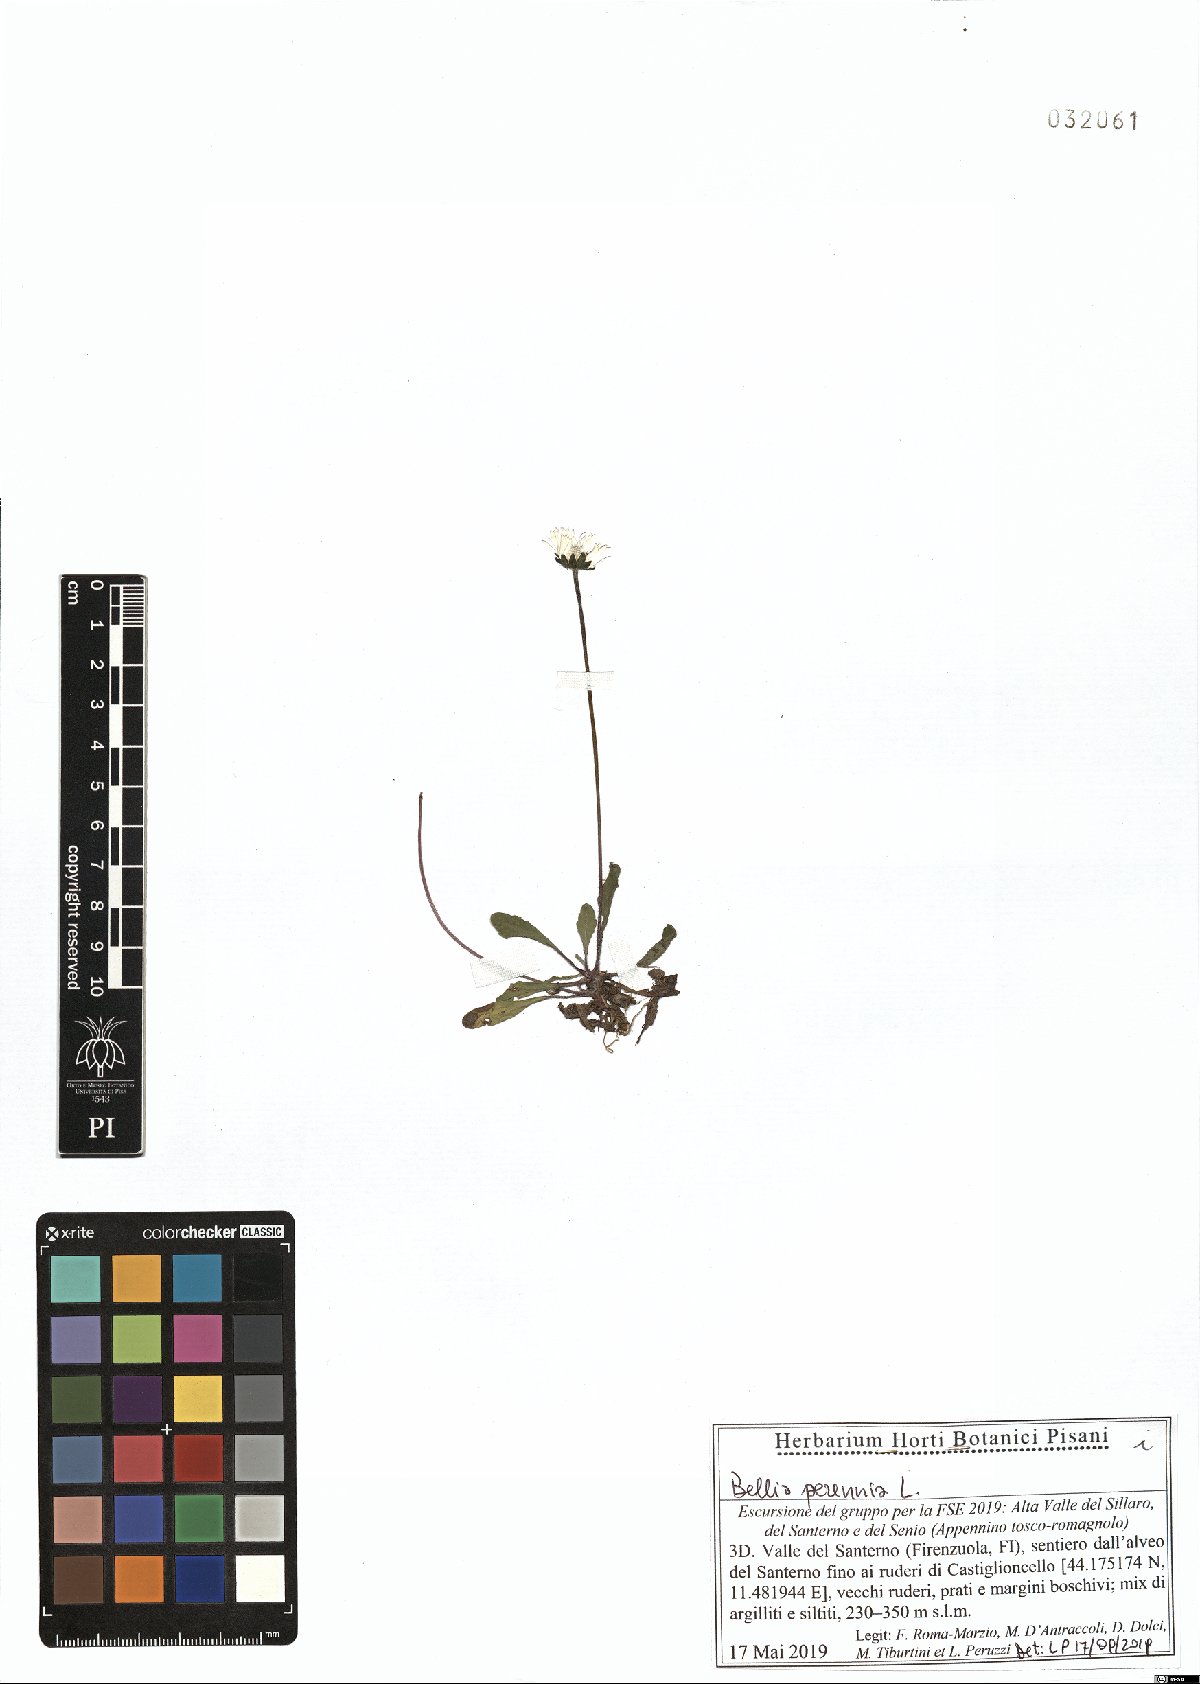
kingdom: Plantae
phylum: Tracheophyta
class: Magnoliopsida
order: Asterales
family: Asteraceae
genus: Bellis
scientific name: Bellis perennis
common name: Lawndaisy
